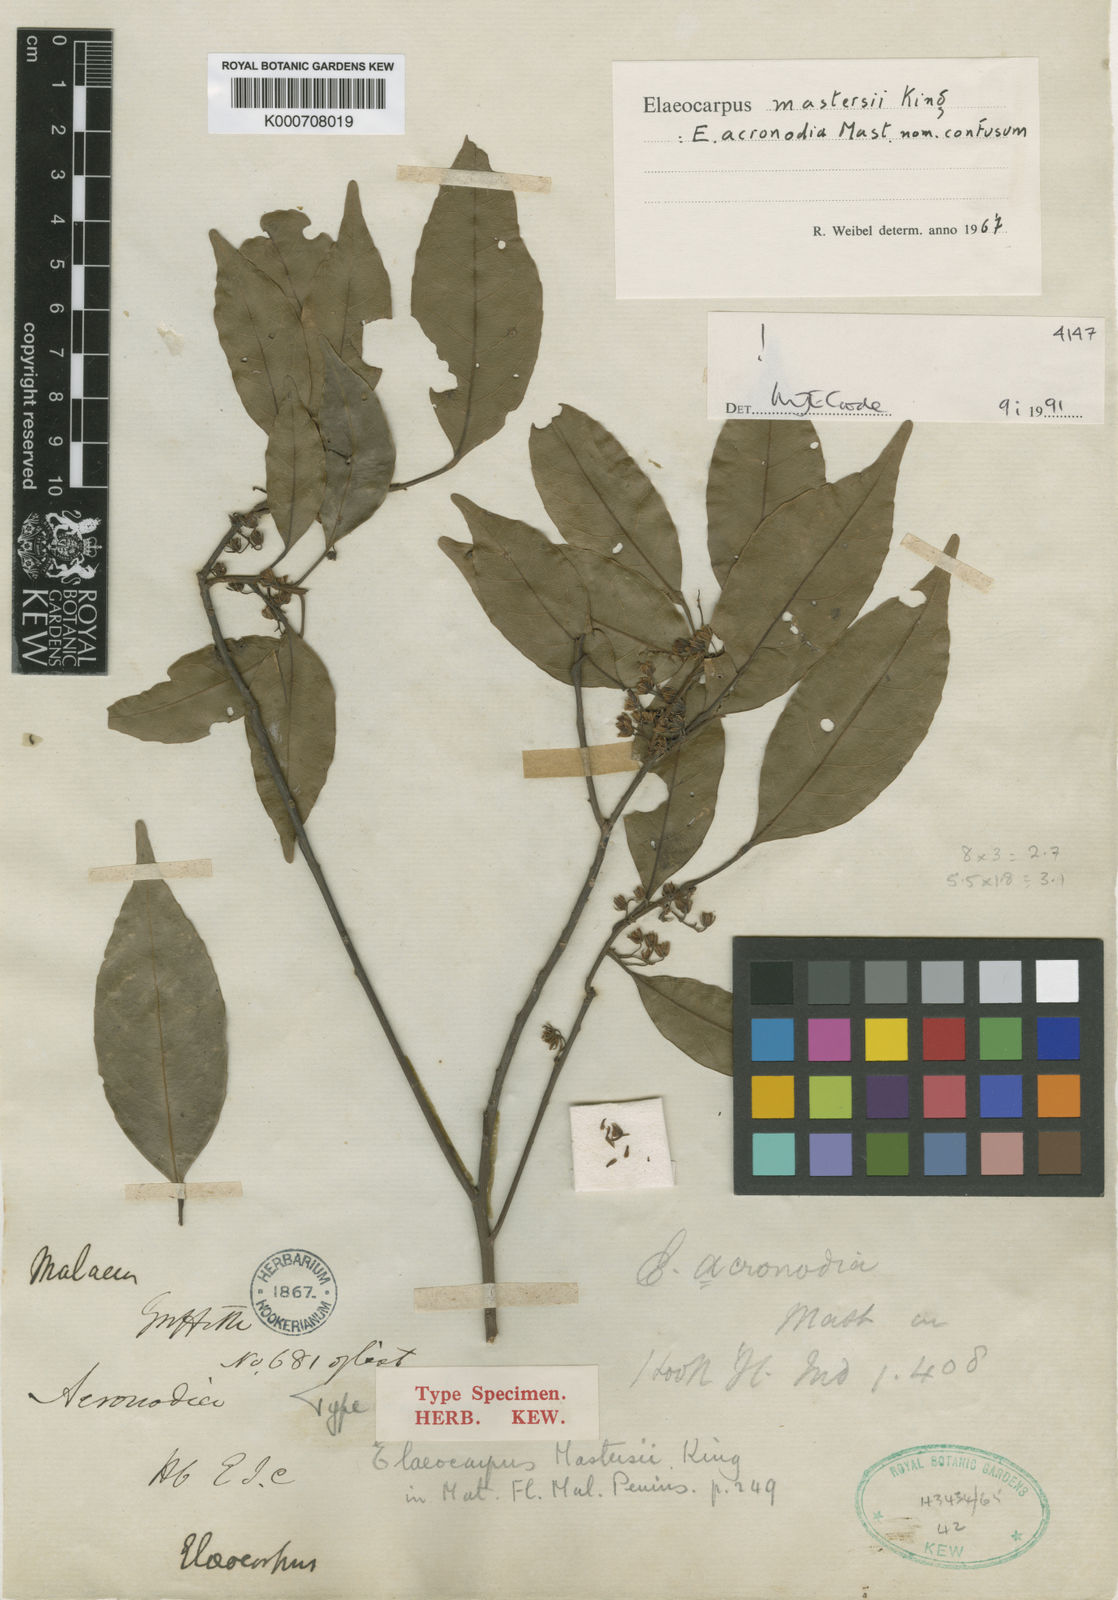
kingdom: Plantae
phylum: Tracheophyta
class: Magnoliopsida
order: Oxalidales
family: Elaeocarpaceae
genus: Elaeocarpus
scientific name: Elaeocarpus mastersii
